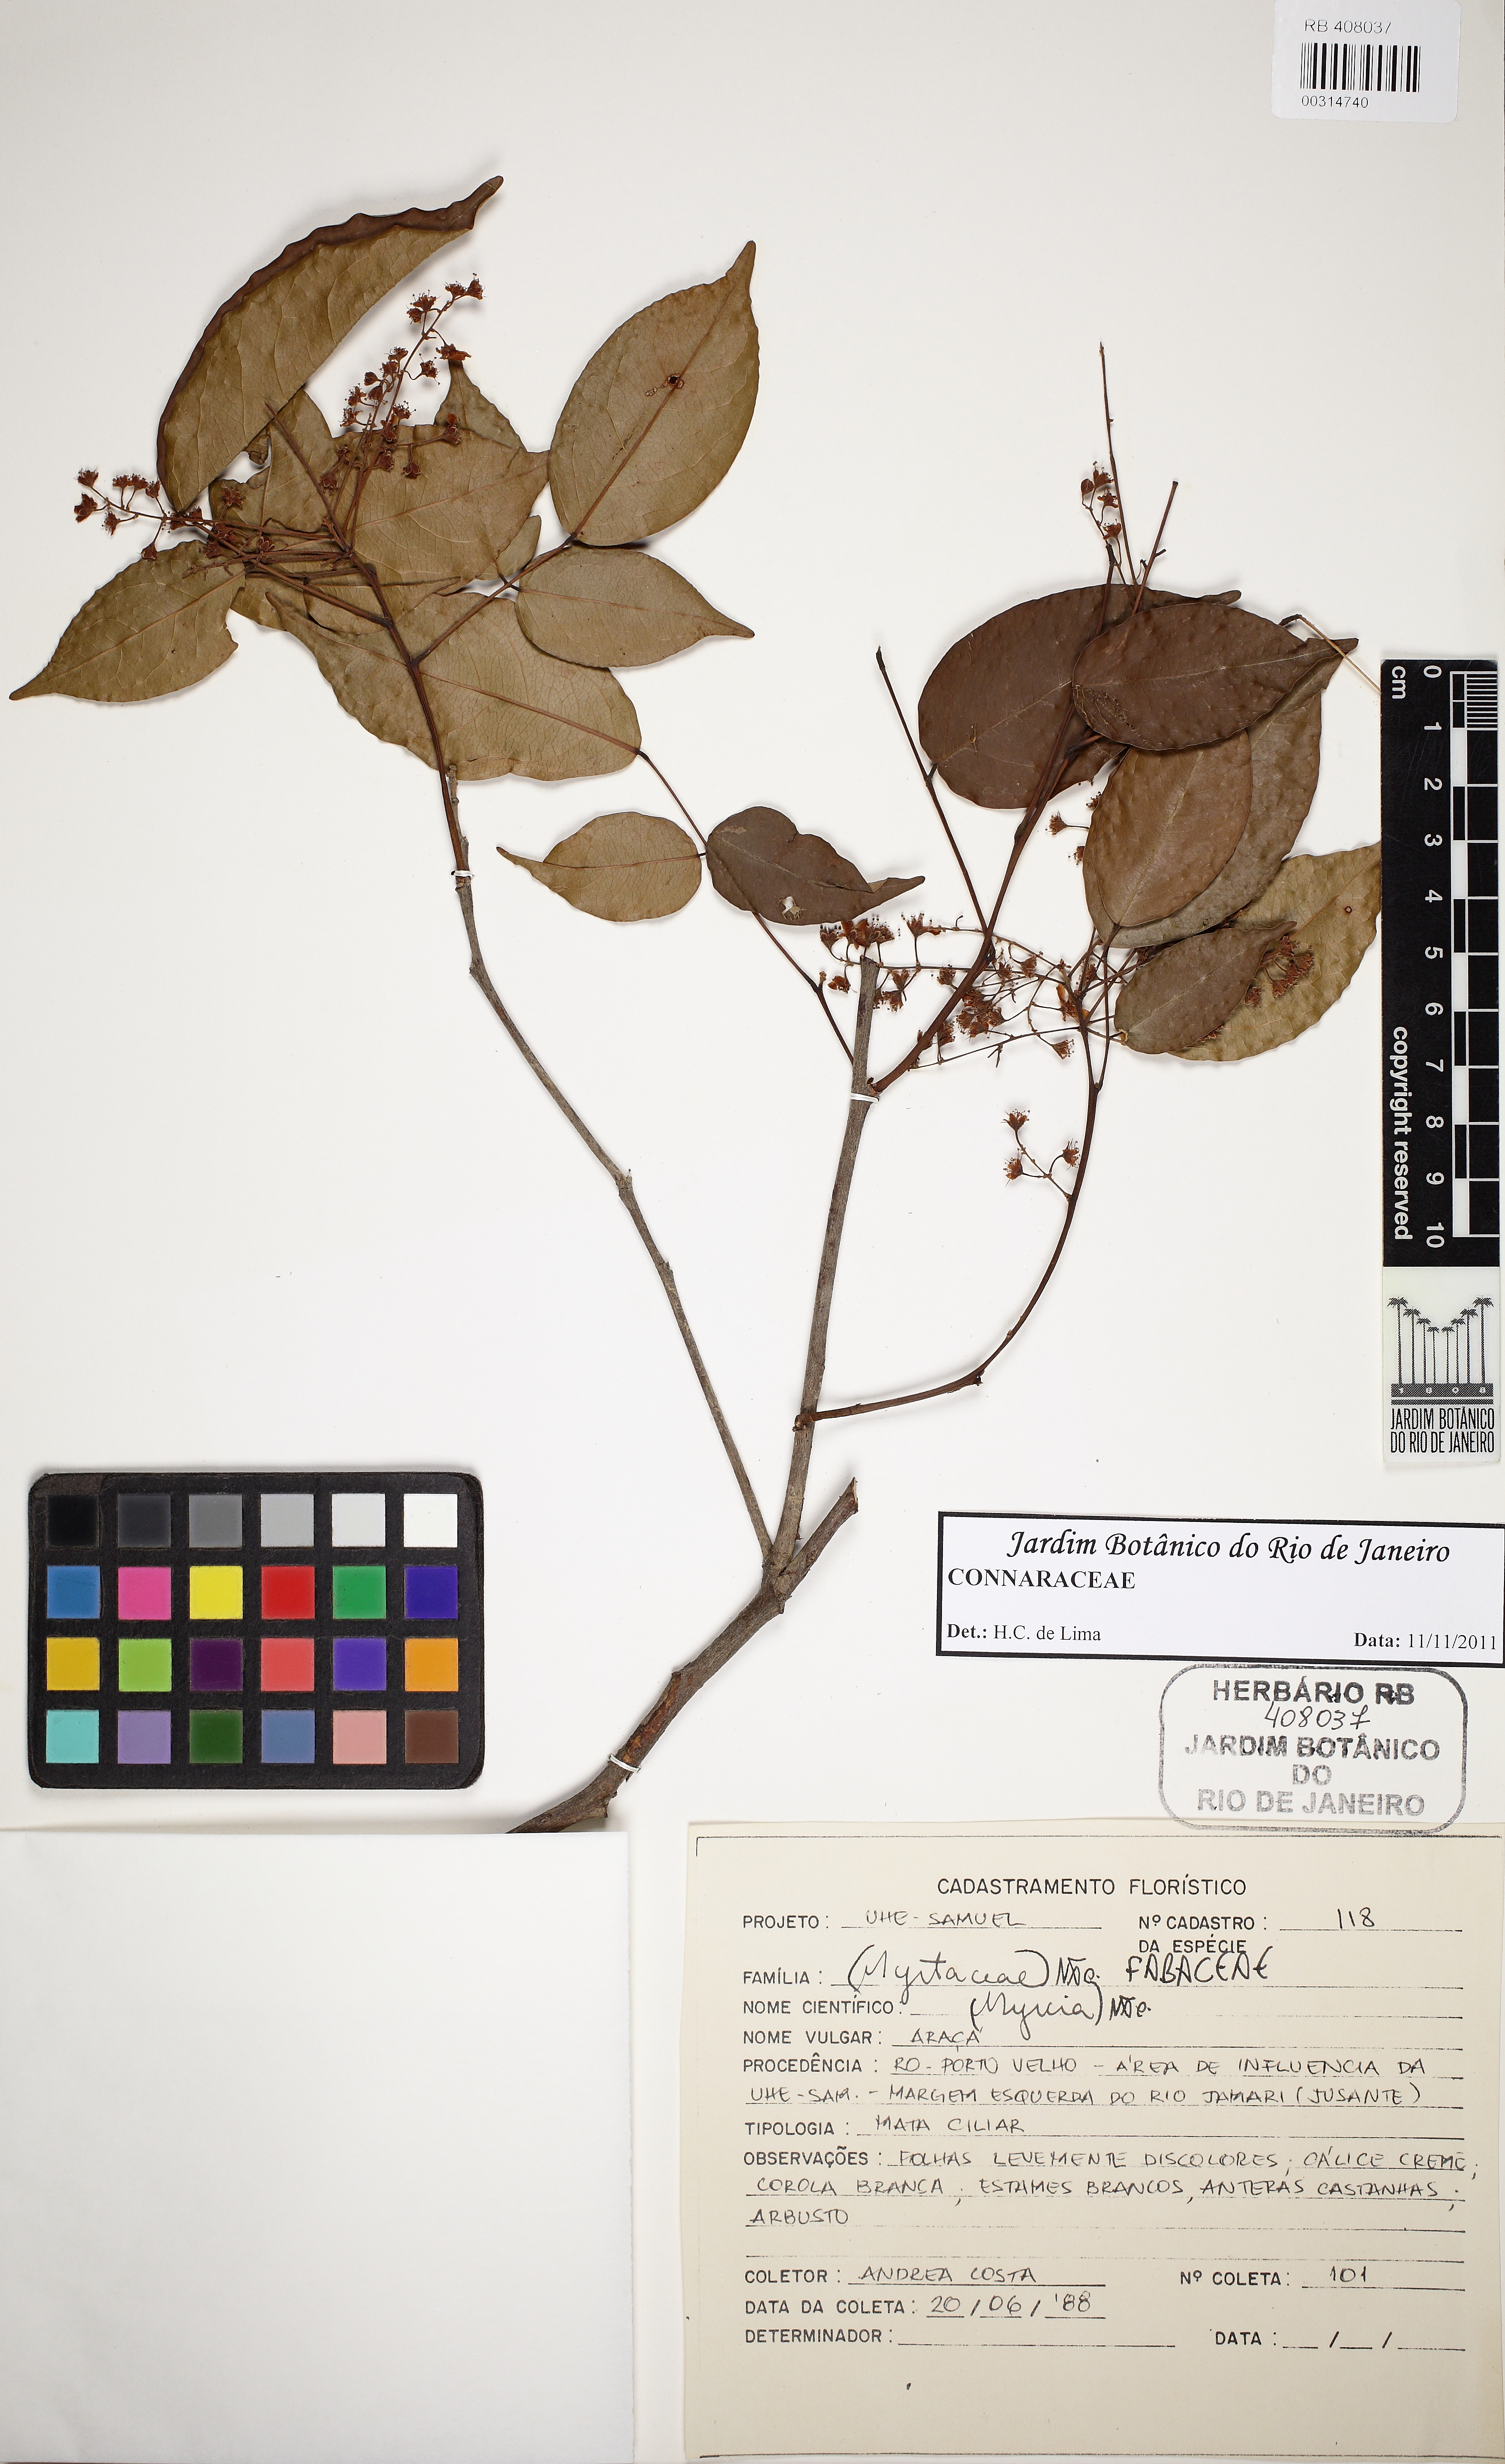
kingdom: Plantae
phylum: Tracheophyta
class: Magnoliopsida
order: Oxalidales
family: Connaraceae
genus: Rourea
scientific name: Rourea
